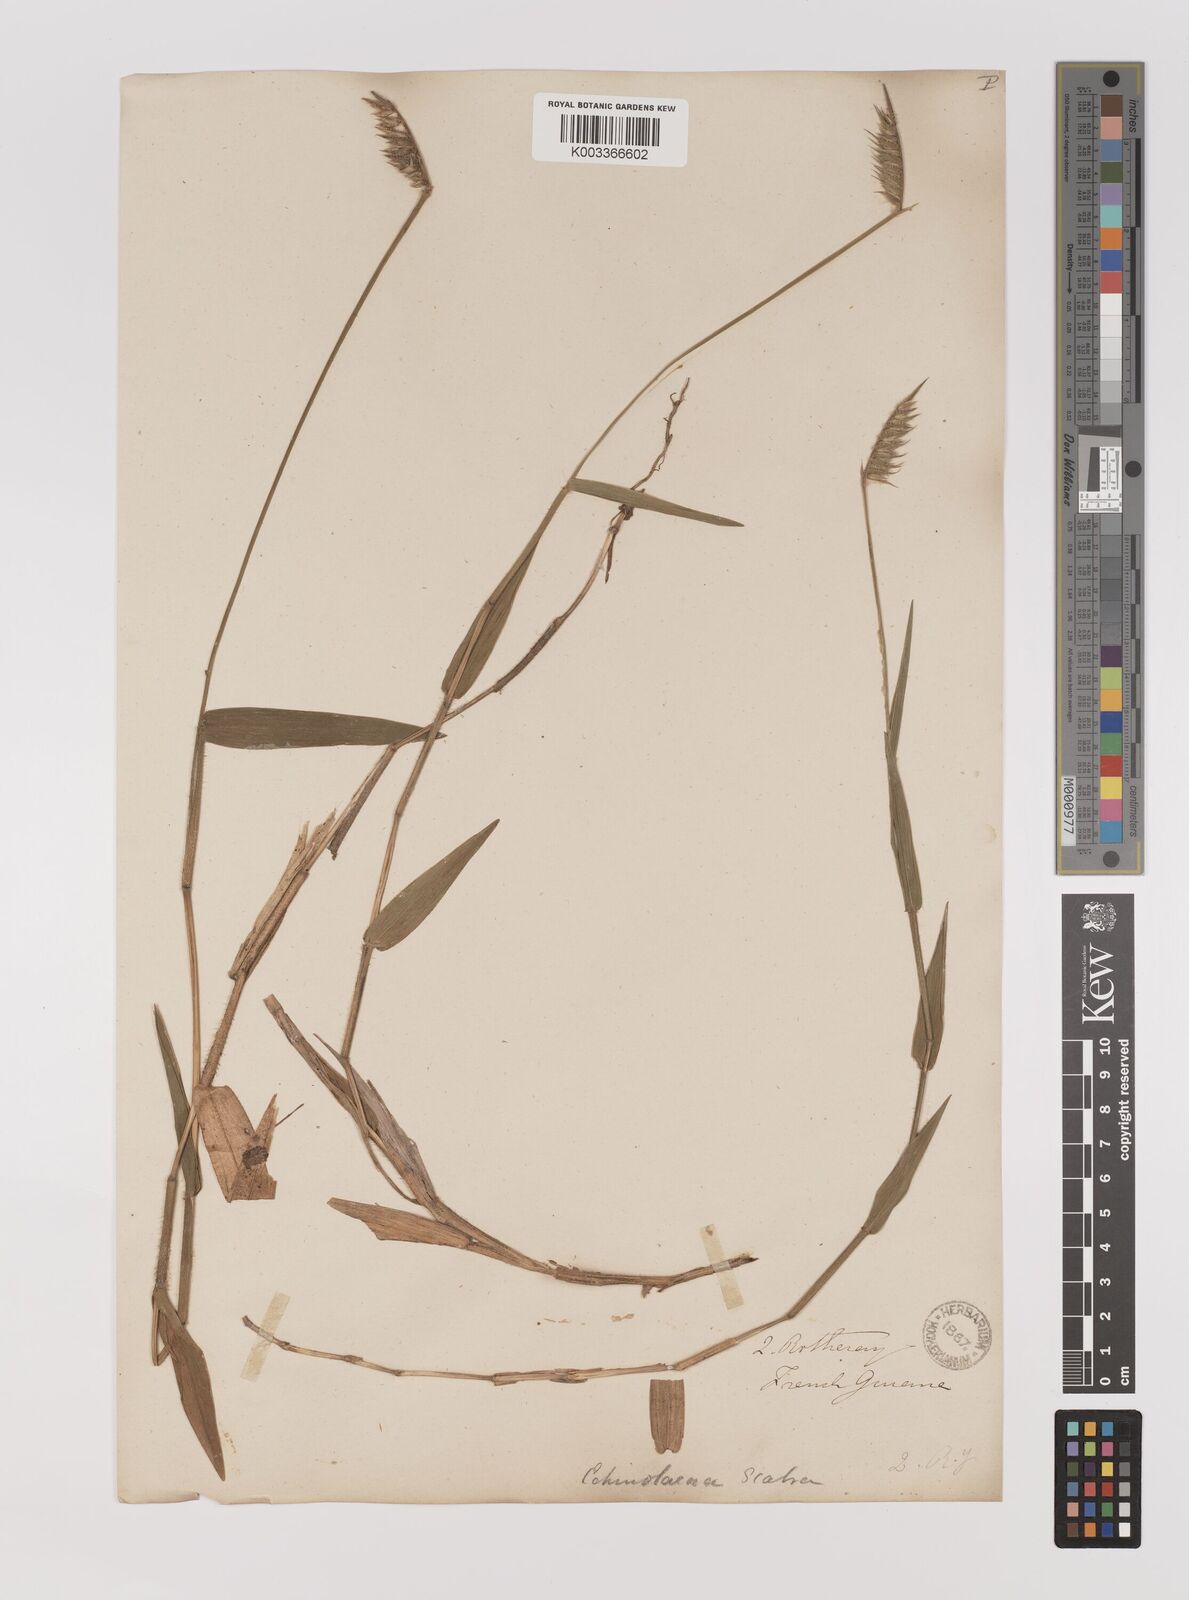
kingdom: Plantae
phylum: Tracheophyta
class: Liliopsida
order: Poales
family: Poaceae
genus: Echinolaena
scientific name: Echinolaena inflexa
